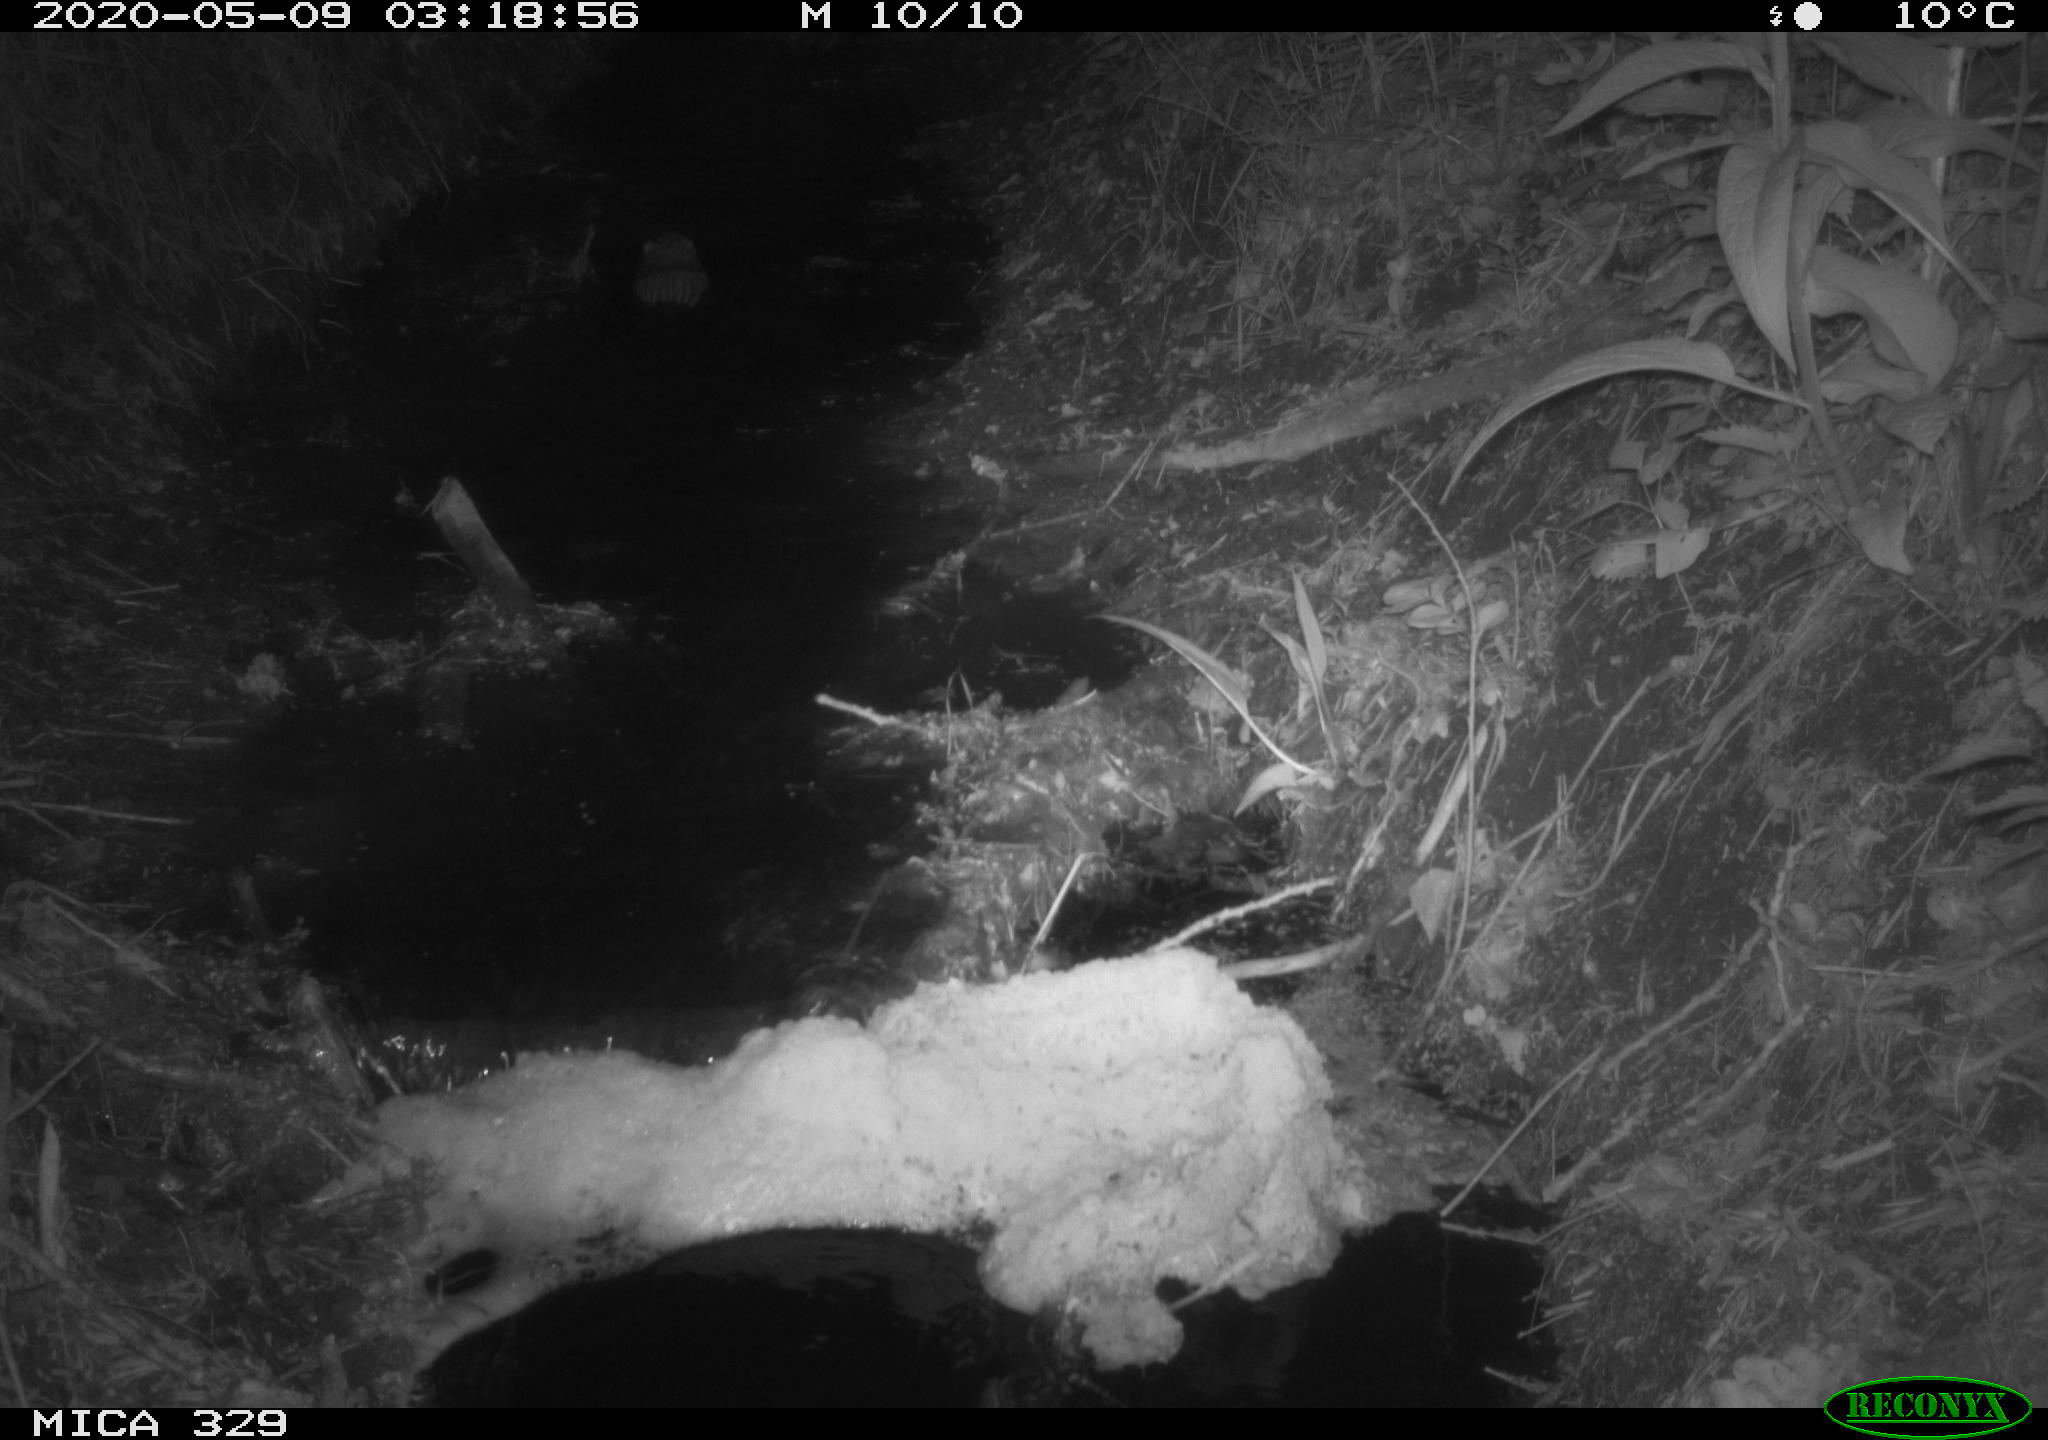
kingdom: Animalia
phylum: Chordata
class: Mammalia
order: Rodentia
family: Cricetidae
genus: Ondatra
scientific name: Ondatra zibethicus
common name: Muskrat
